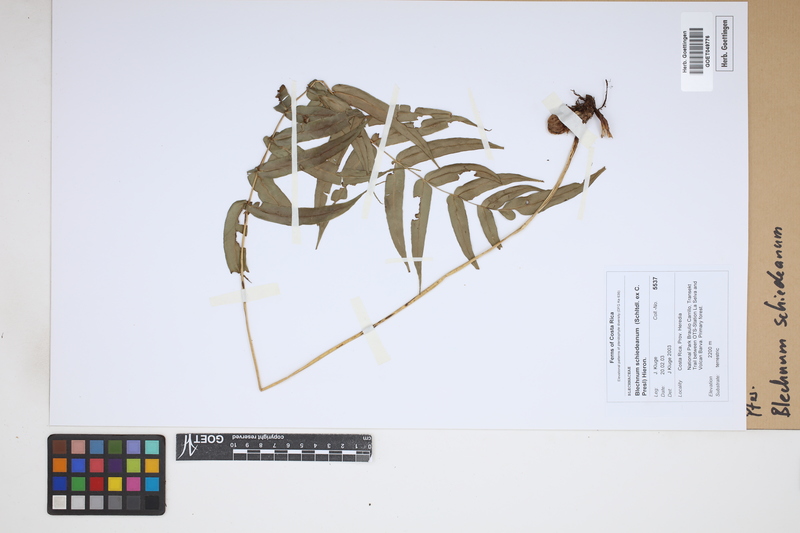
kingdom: Plantae
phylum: Tracheophyta
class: Polypodiopsida
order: Polypodiales
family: Blechnaceae
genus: Parablechnum
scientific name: Parablechnum schiedeanum
